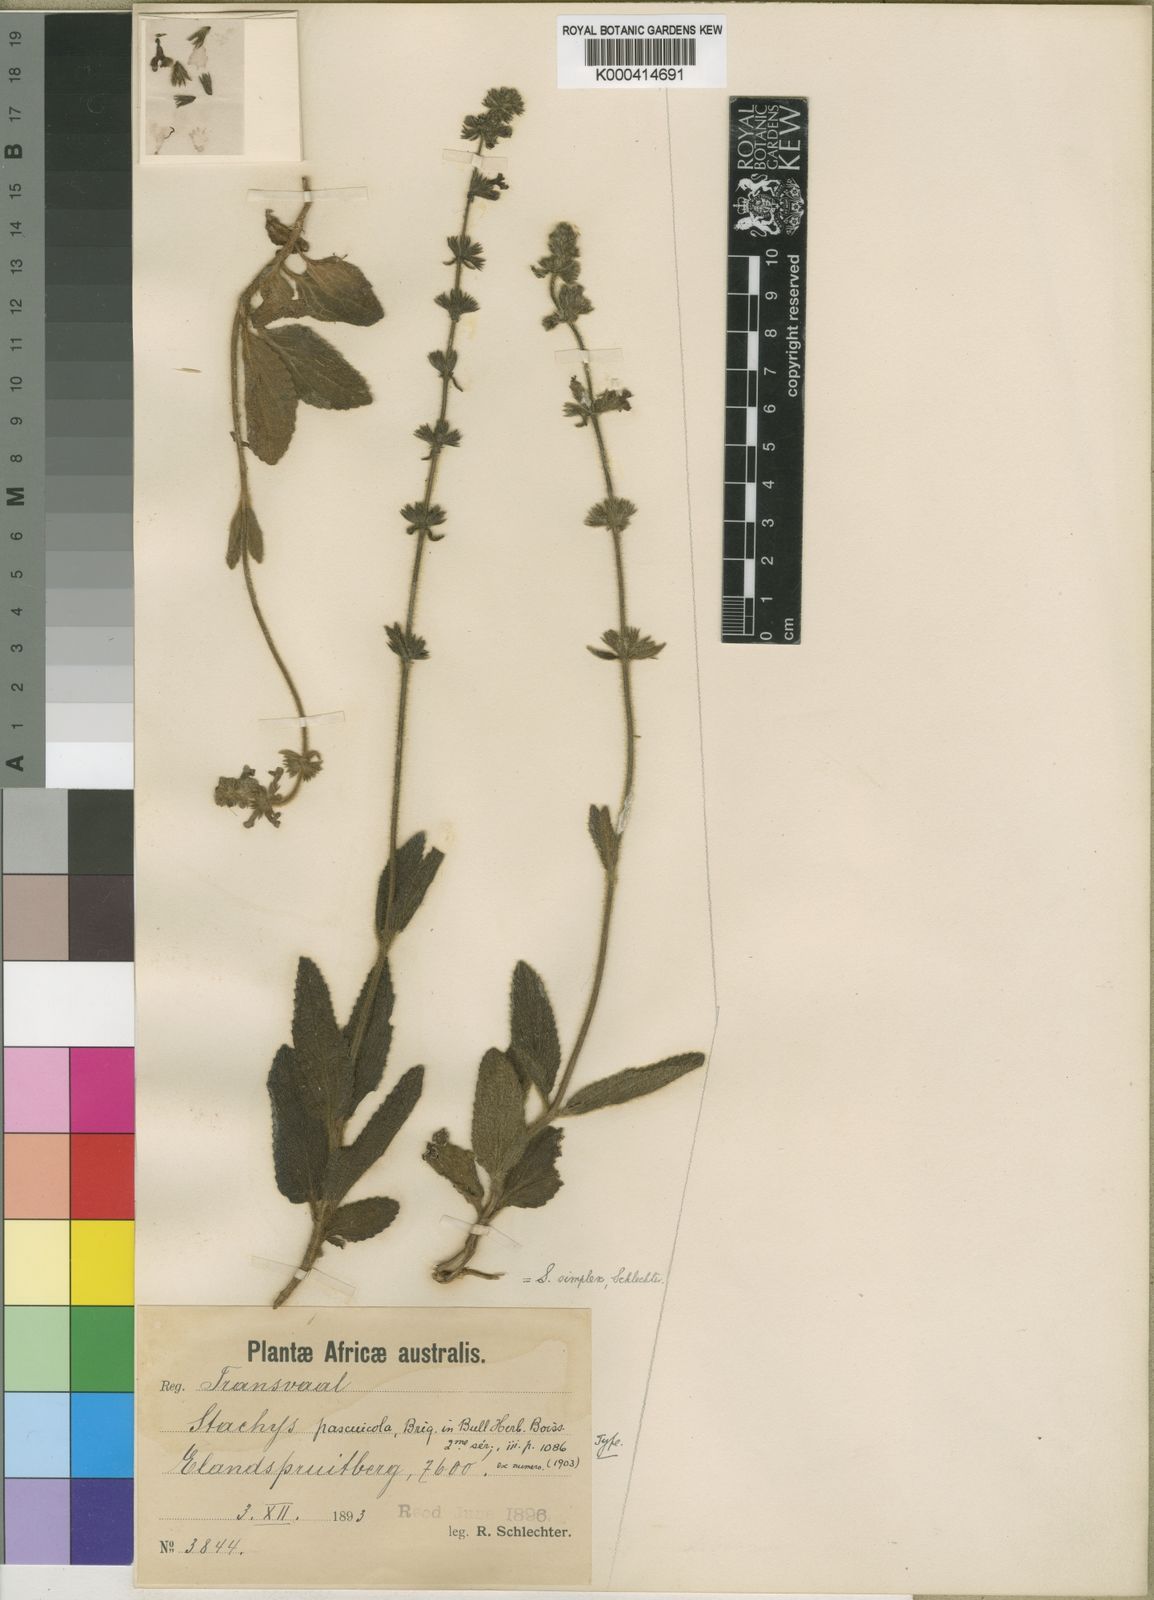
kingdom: Plantae
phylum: Tracheophyta
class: Magnoliopsida
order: Lamiales
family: Lamiaceae
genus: Stachys
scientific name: Stachys simplex
